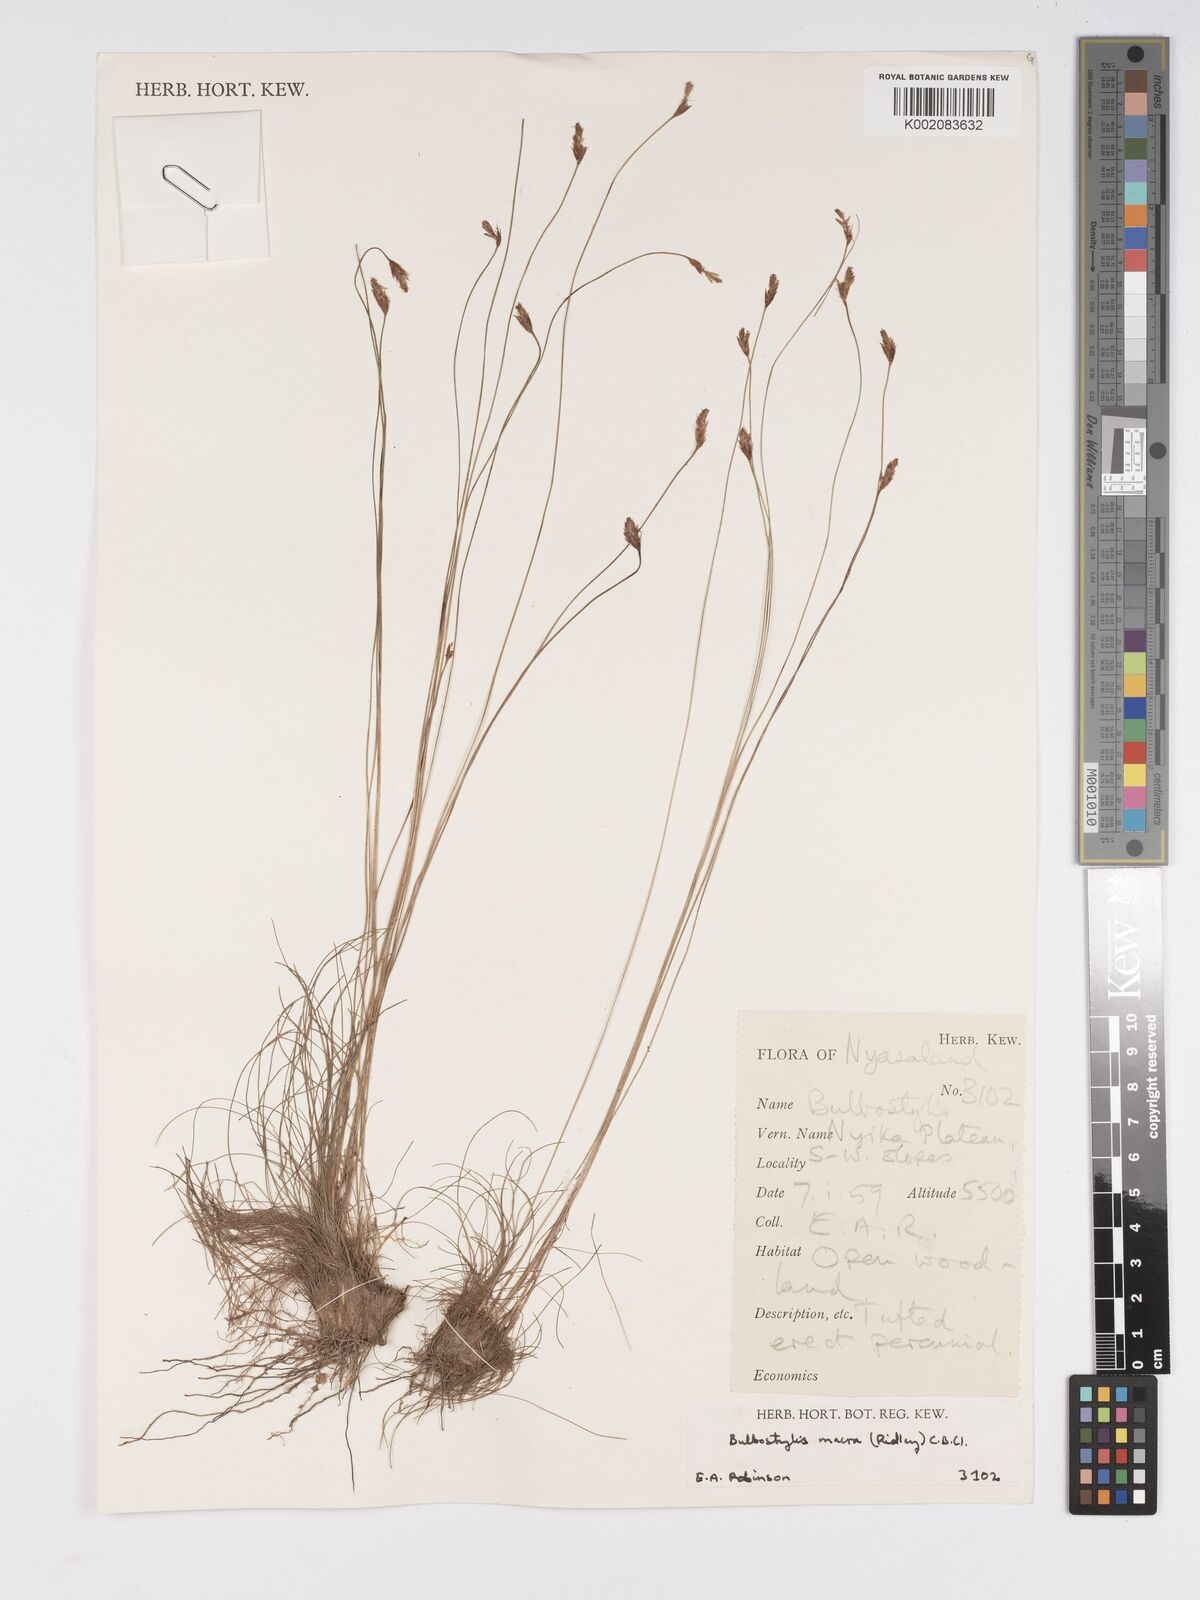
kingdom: Plantae
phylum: Tracheophyta
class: Liliopsida
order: Poales
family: Cyperaceae
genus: Bulbostylis
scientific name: Bulbostylis macra
